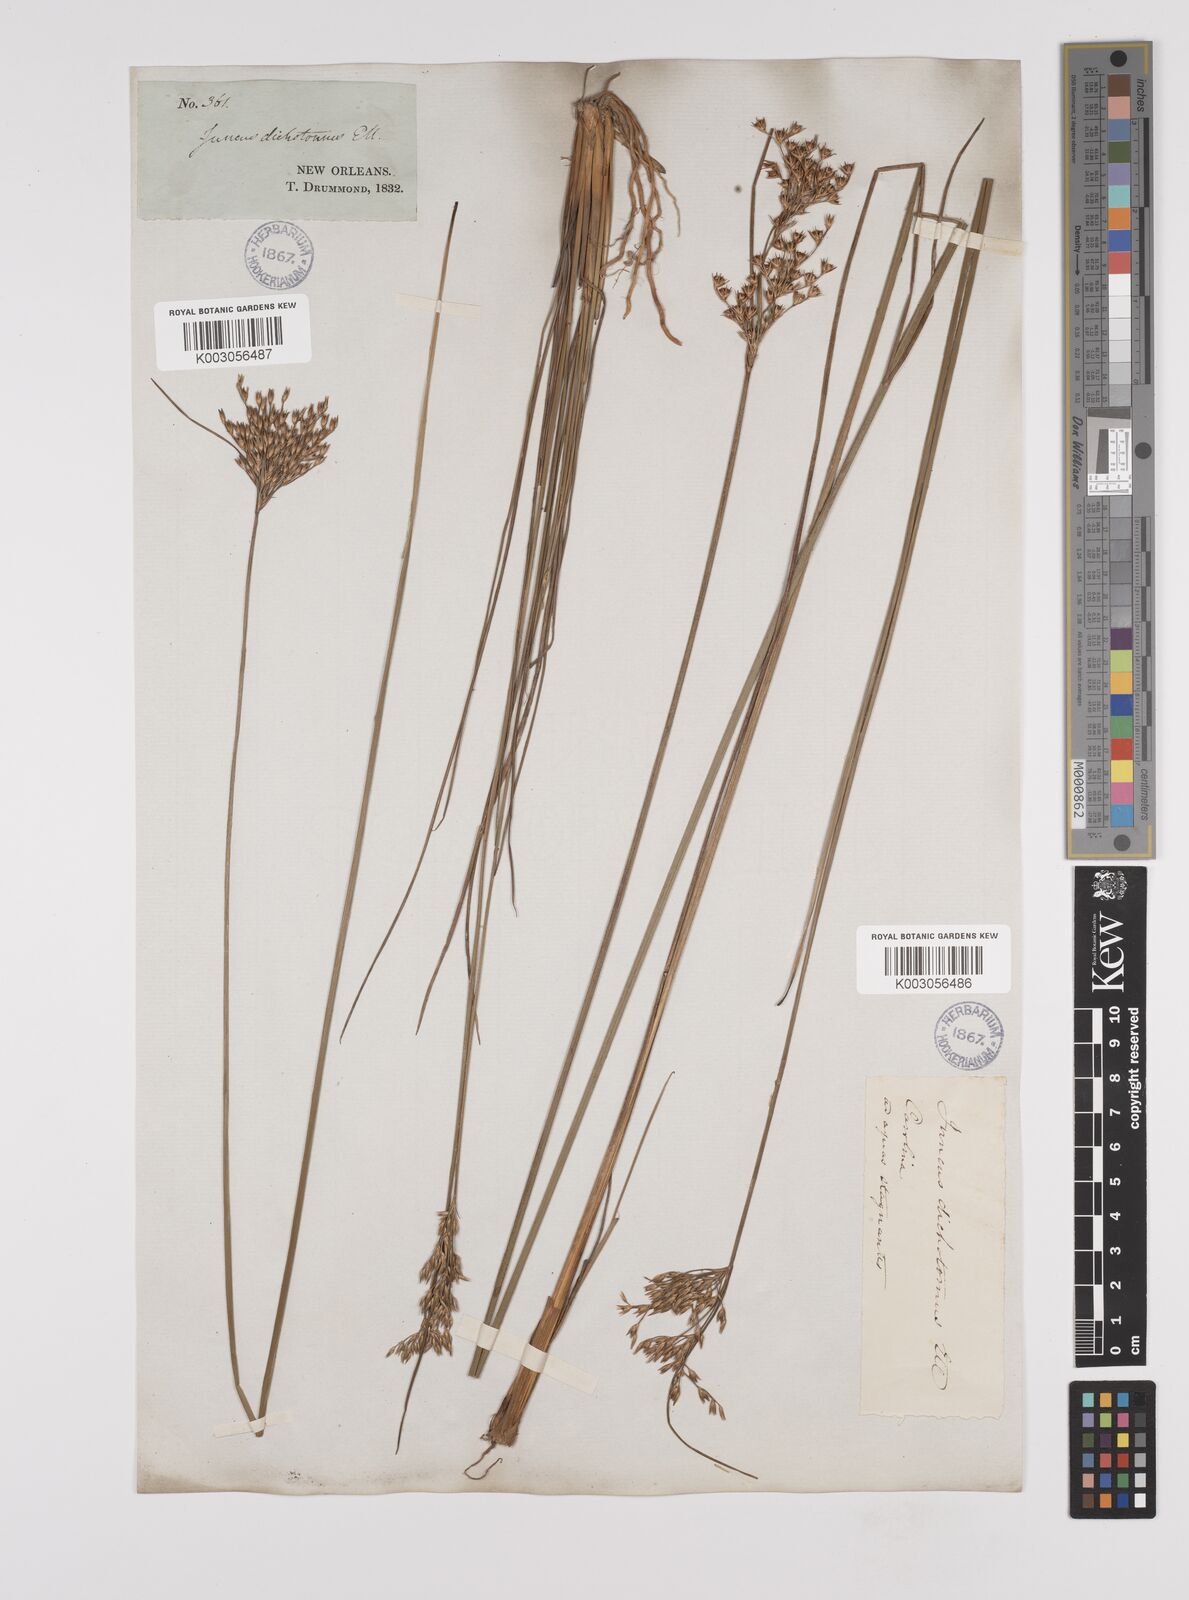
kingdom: Plantae
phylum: Tracheophyta
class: Liliopsida
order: Poales
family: Juncaceae
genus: Juncus
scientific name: Juncus dichotomus
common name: Forked rush
